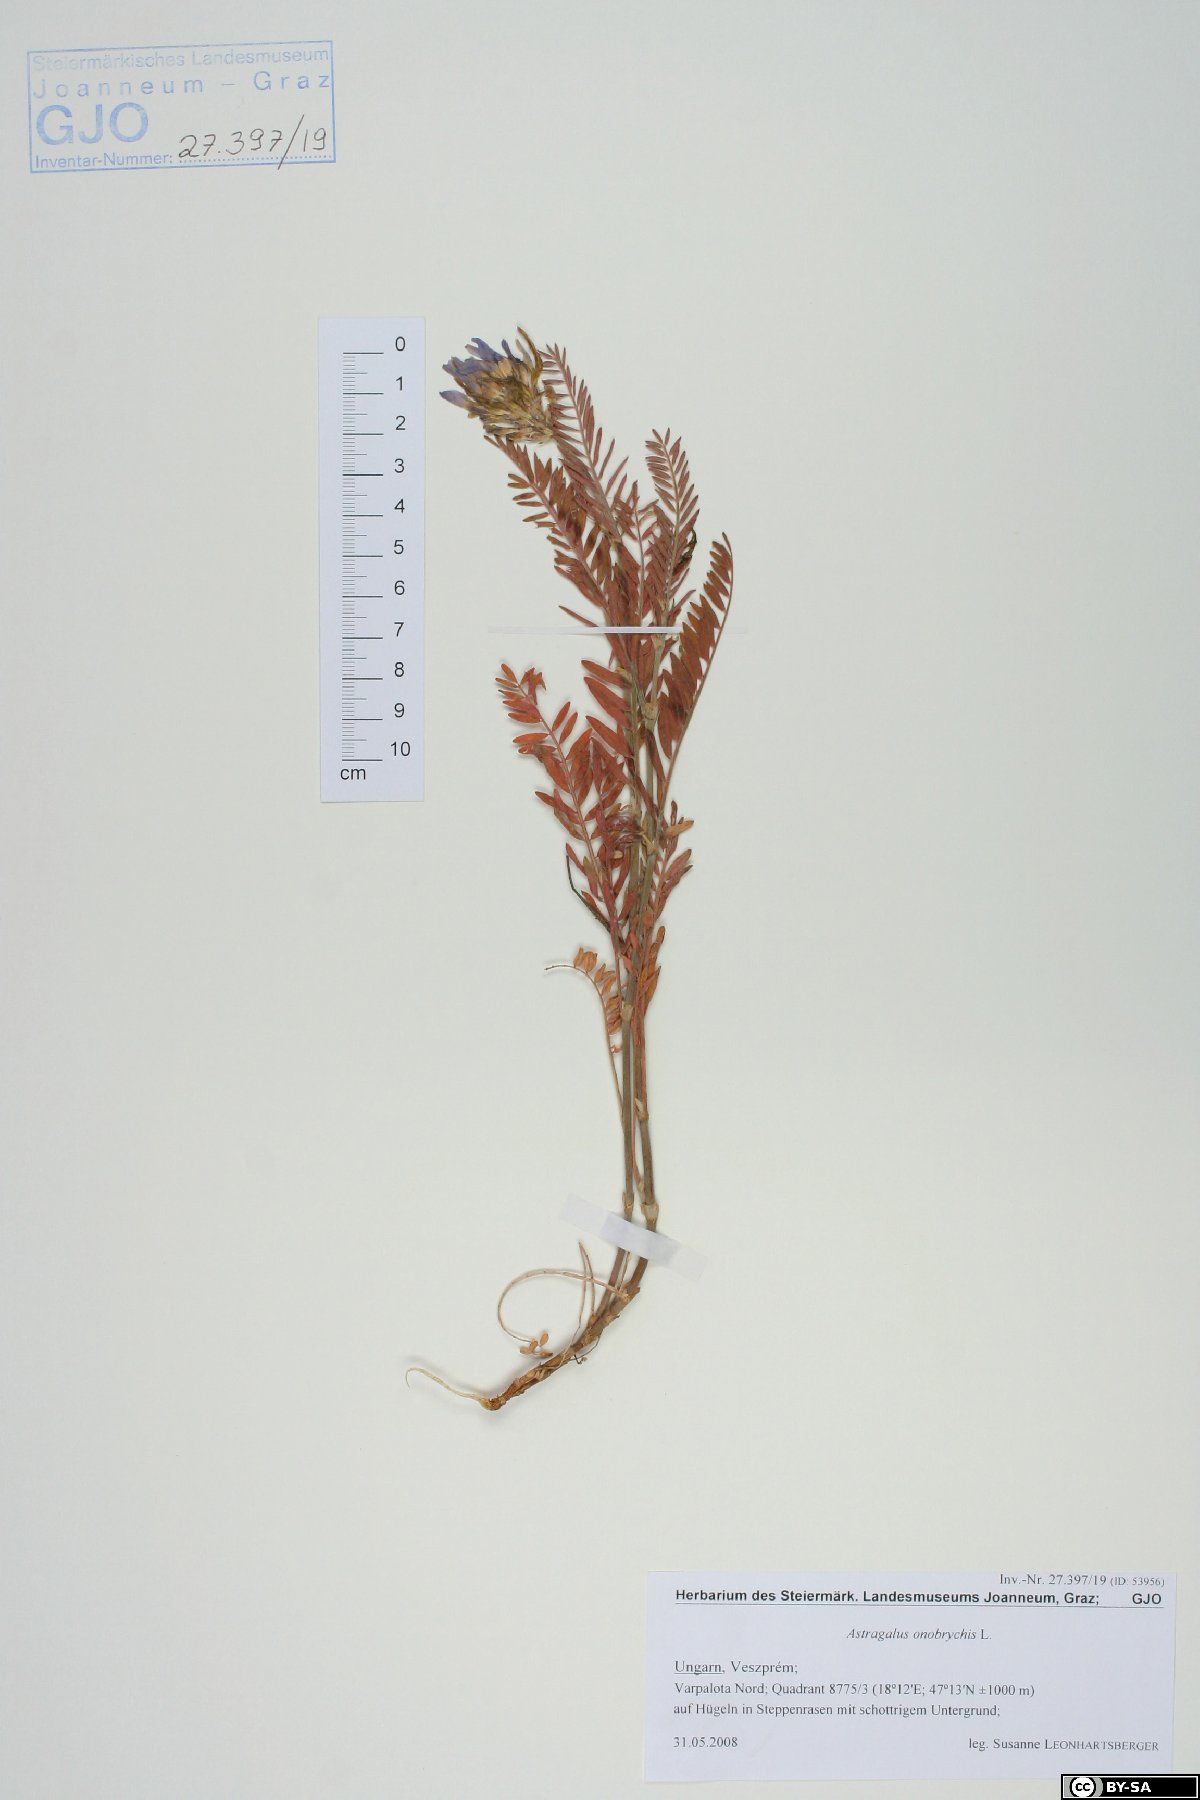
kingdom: Plantae
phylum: Tracheophyta
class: Magnoliopsida
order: Fabales
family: Fabaceae
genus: Astragalus
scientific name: Astragalus onobrychis
